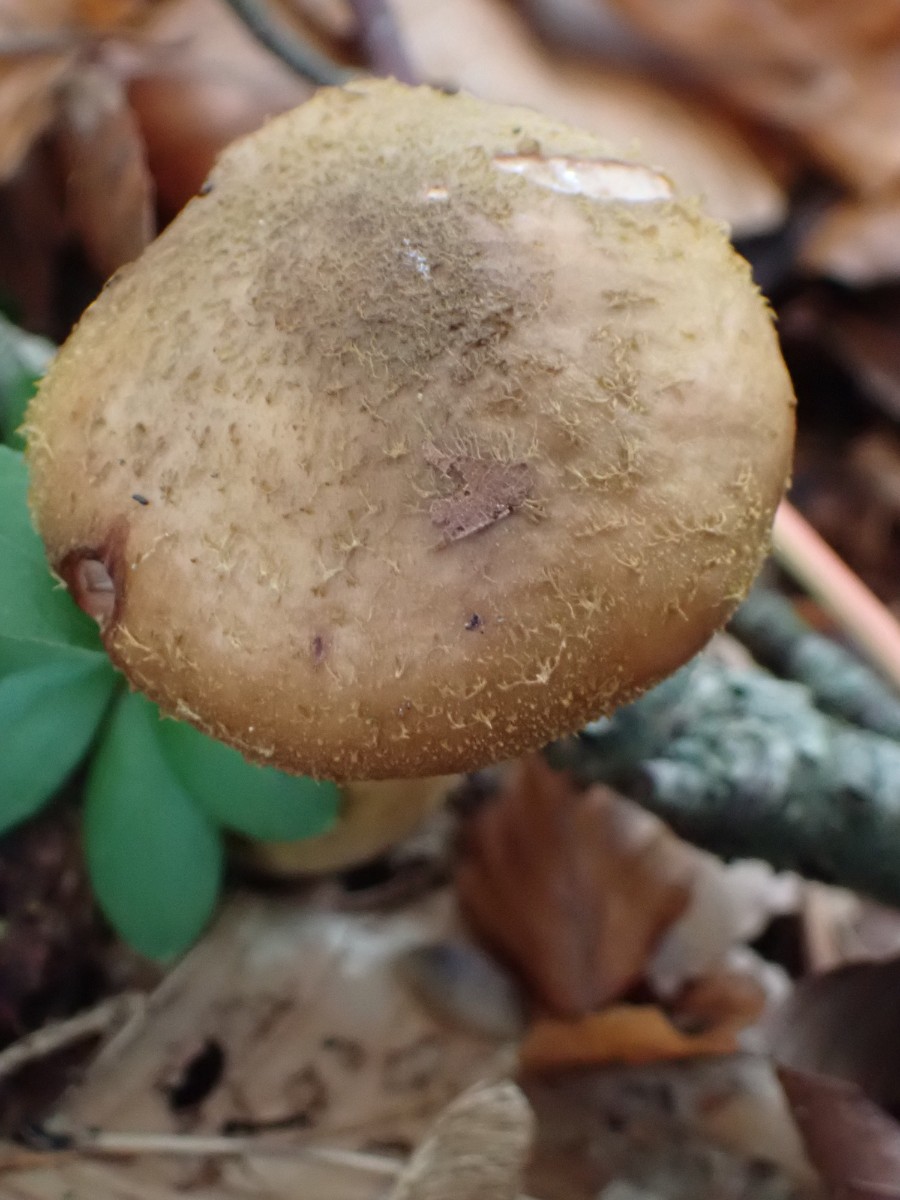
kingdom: Fungi
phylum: Basidiomycota
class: Agaricomycetes
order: Agaricales
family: Physalacriaceae
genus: Armillaria
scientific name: Armillaria
